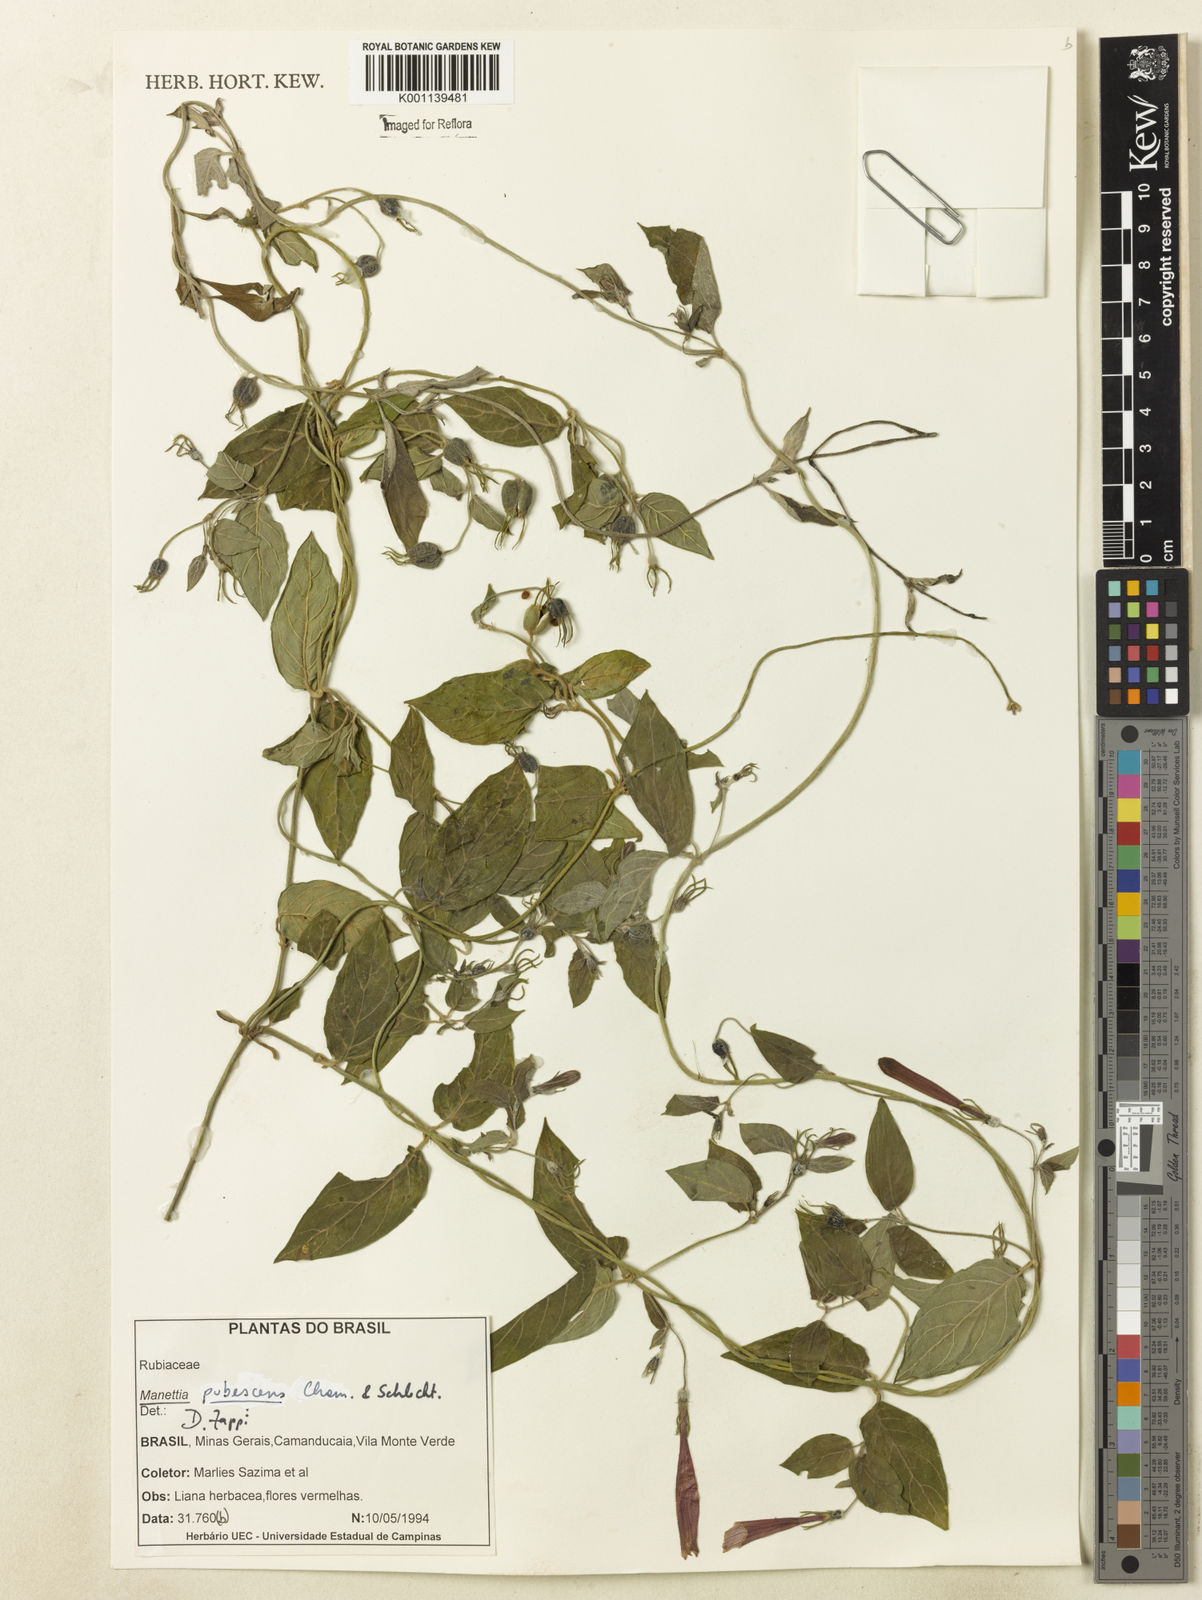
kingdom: Plantae
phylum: Tracheophyta
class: Magnoliopsida
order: Gentianales
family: Rubiaceae
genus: Manettia
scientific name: Manettia pubescens
